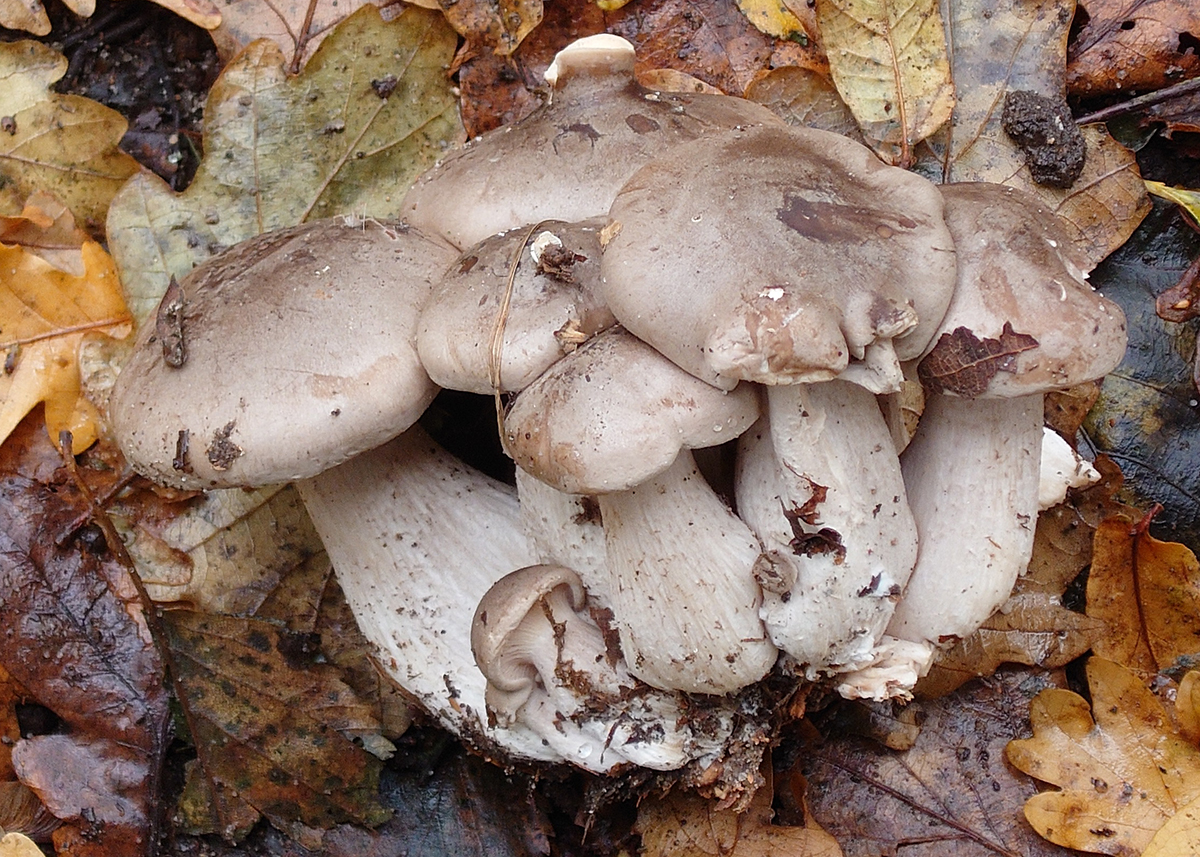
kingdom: Fungi
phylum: Basidiomycota
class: Agaricomycetes
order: Agaricales
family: Tricholomataceae
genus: Clitocybe
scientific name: Clitocybe nebularis
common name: tåge-tragthat
